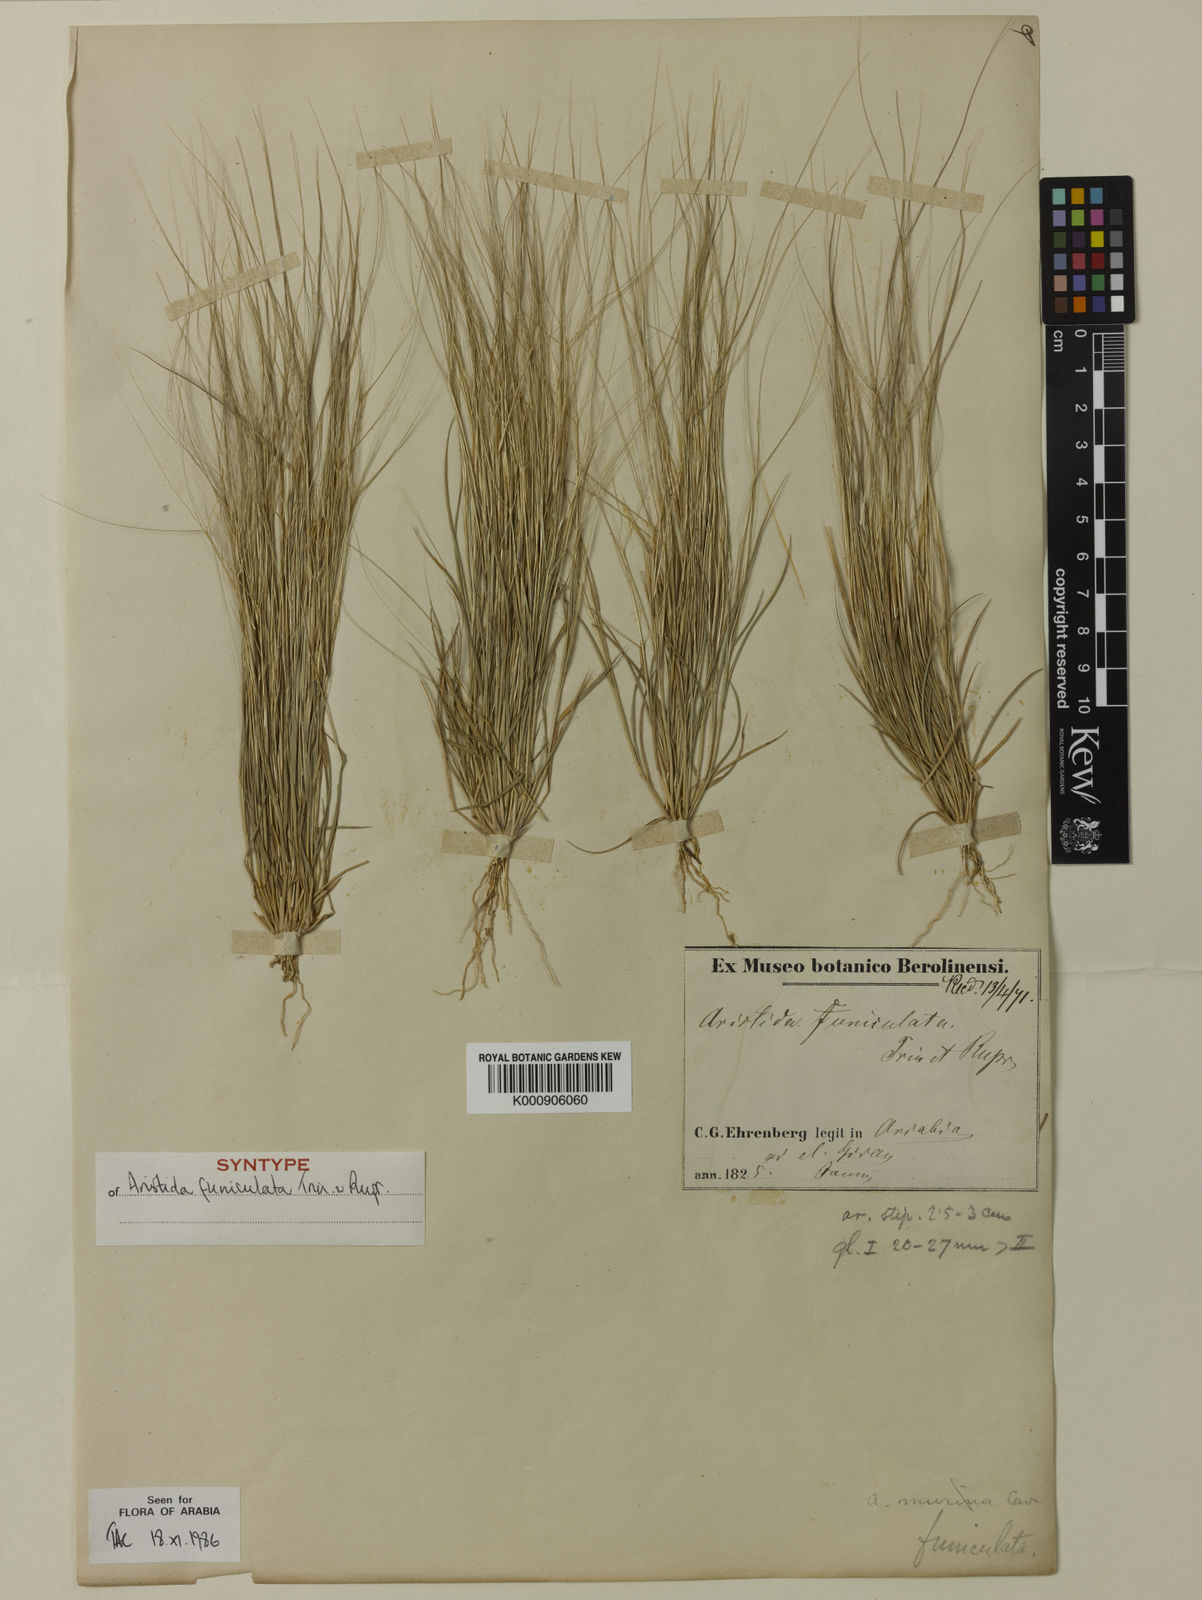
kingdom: Plantae
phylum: Tracheophyta
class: Liliopsida
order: Poales
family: Poaceae
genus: Aristida
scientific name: Aristida funiculata
